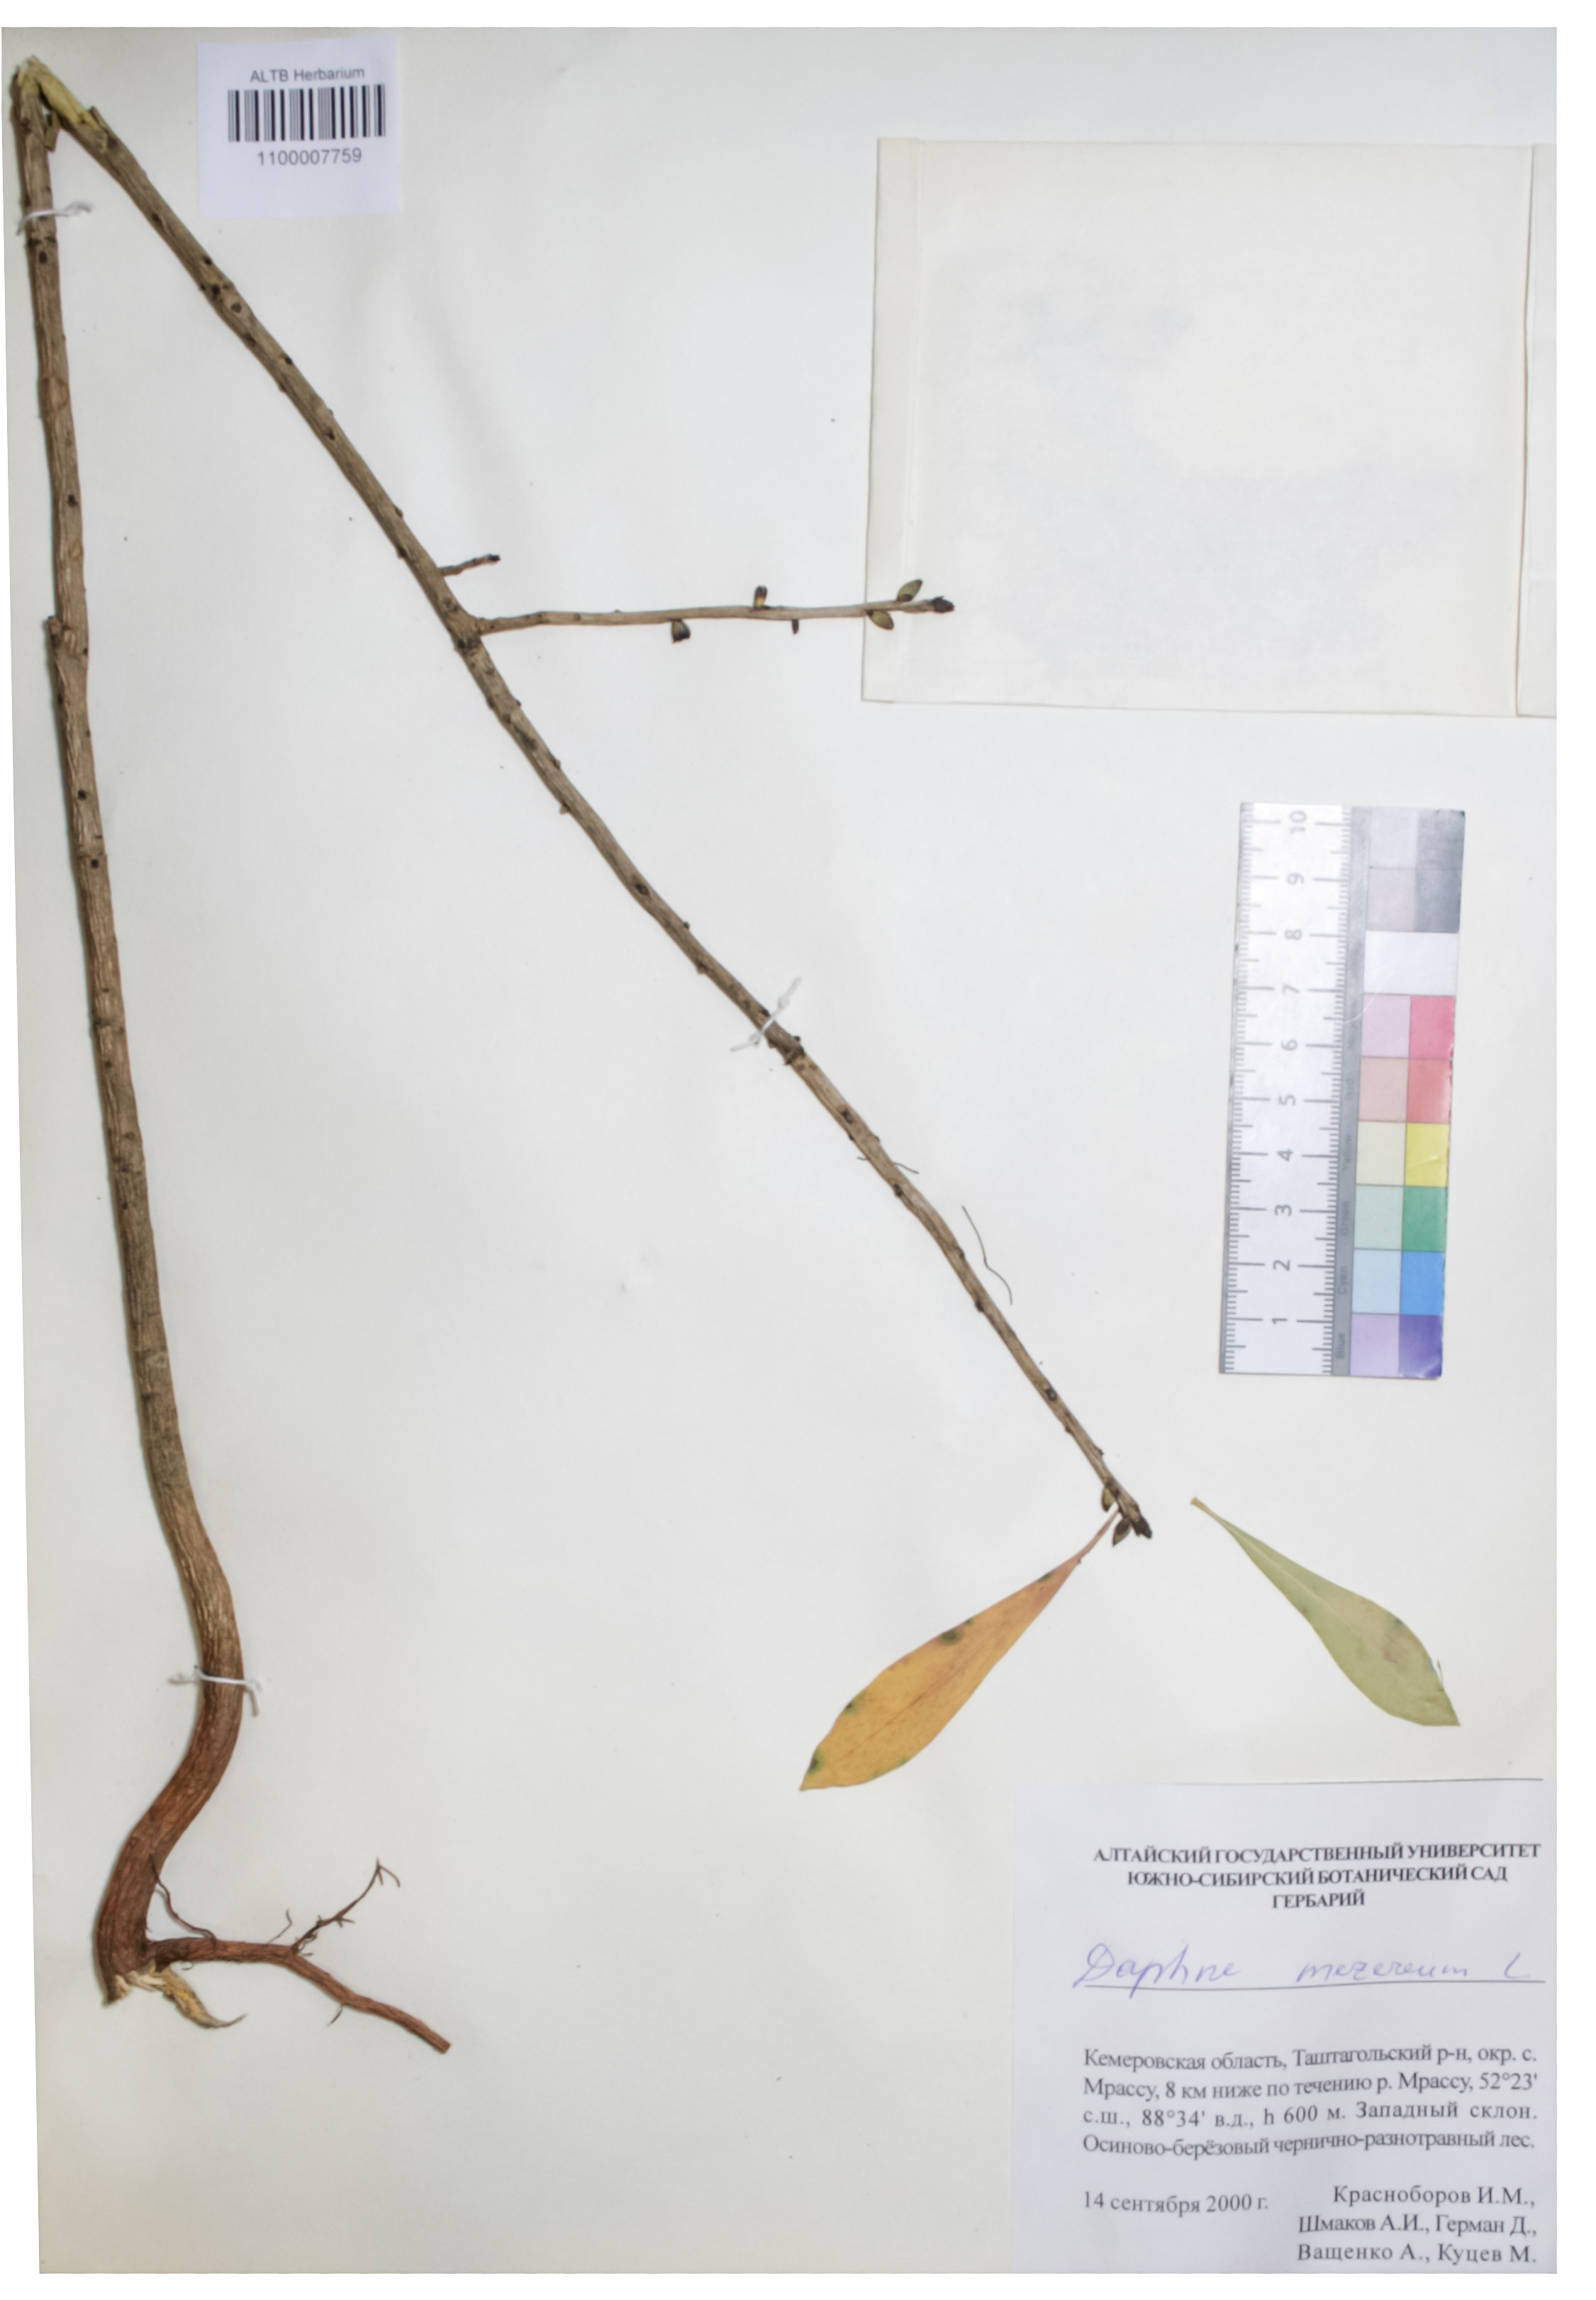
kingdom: Plantae
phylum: Tracheophyta
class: Magnoliopsida
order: Malvales
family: Thymelaeaceae
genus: Daphne
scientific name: Daphne mezereum
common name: Mezereon
